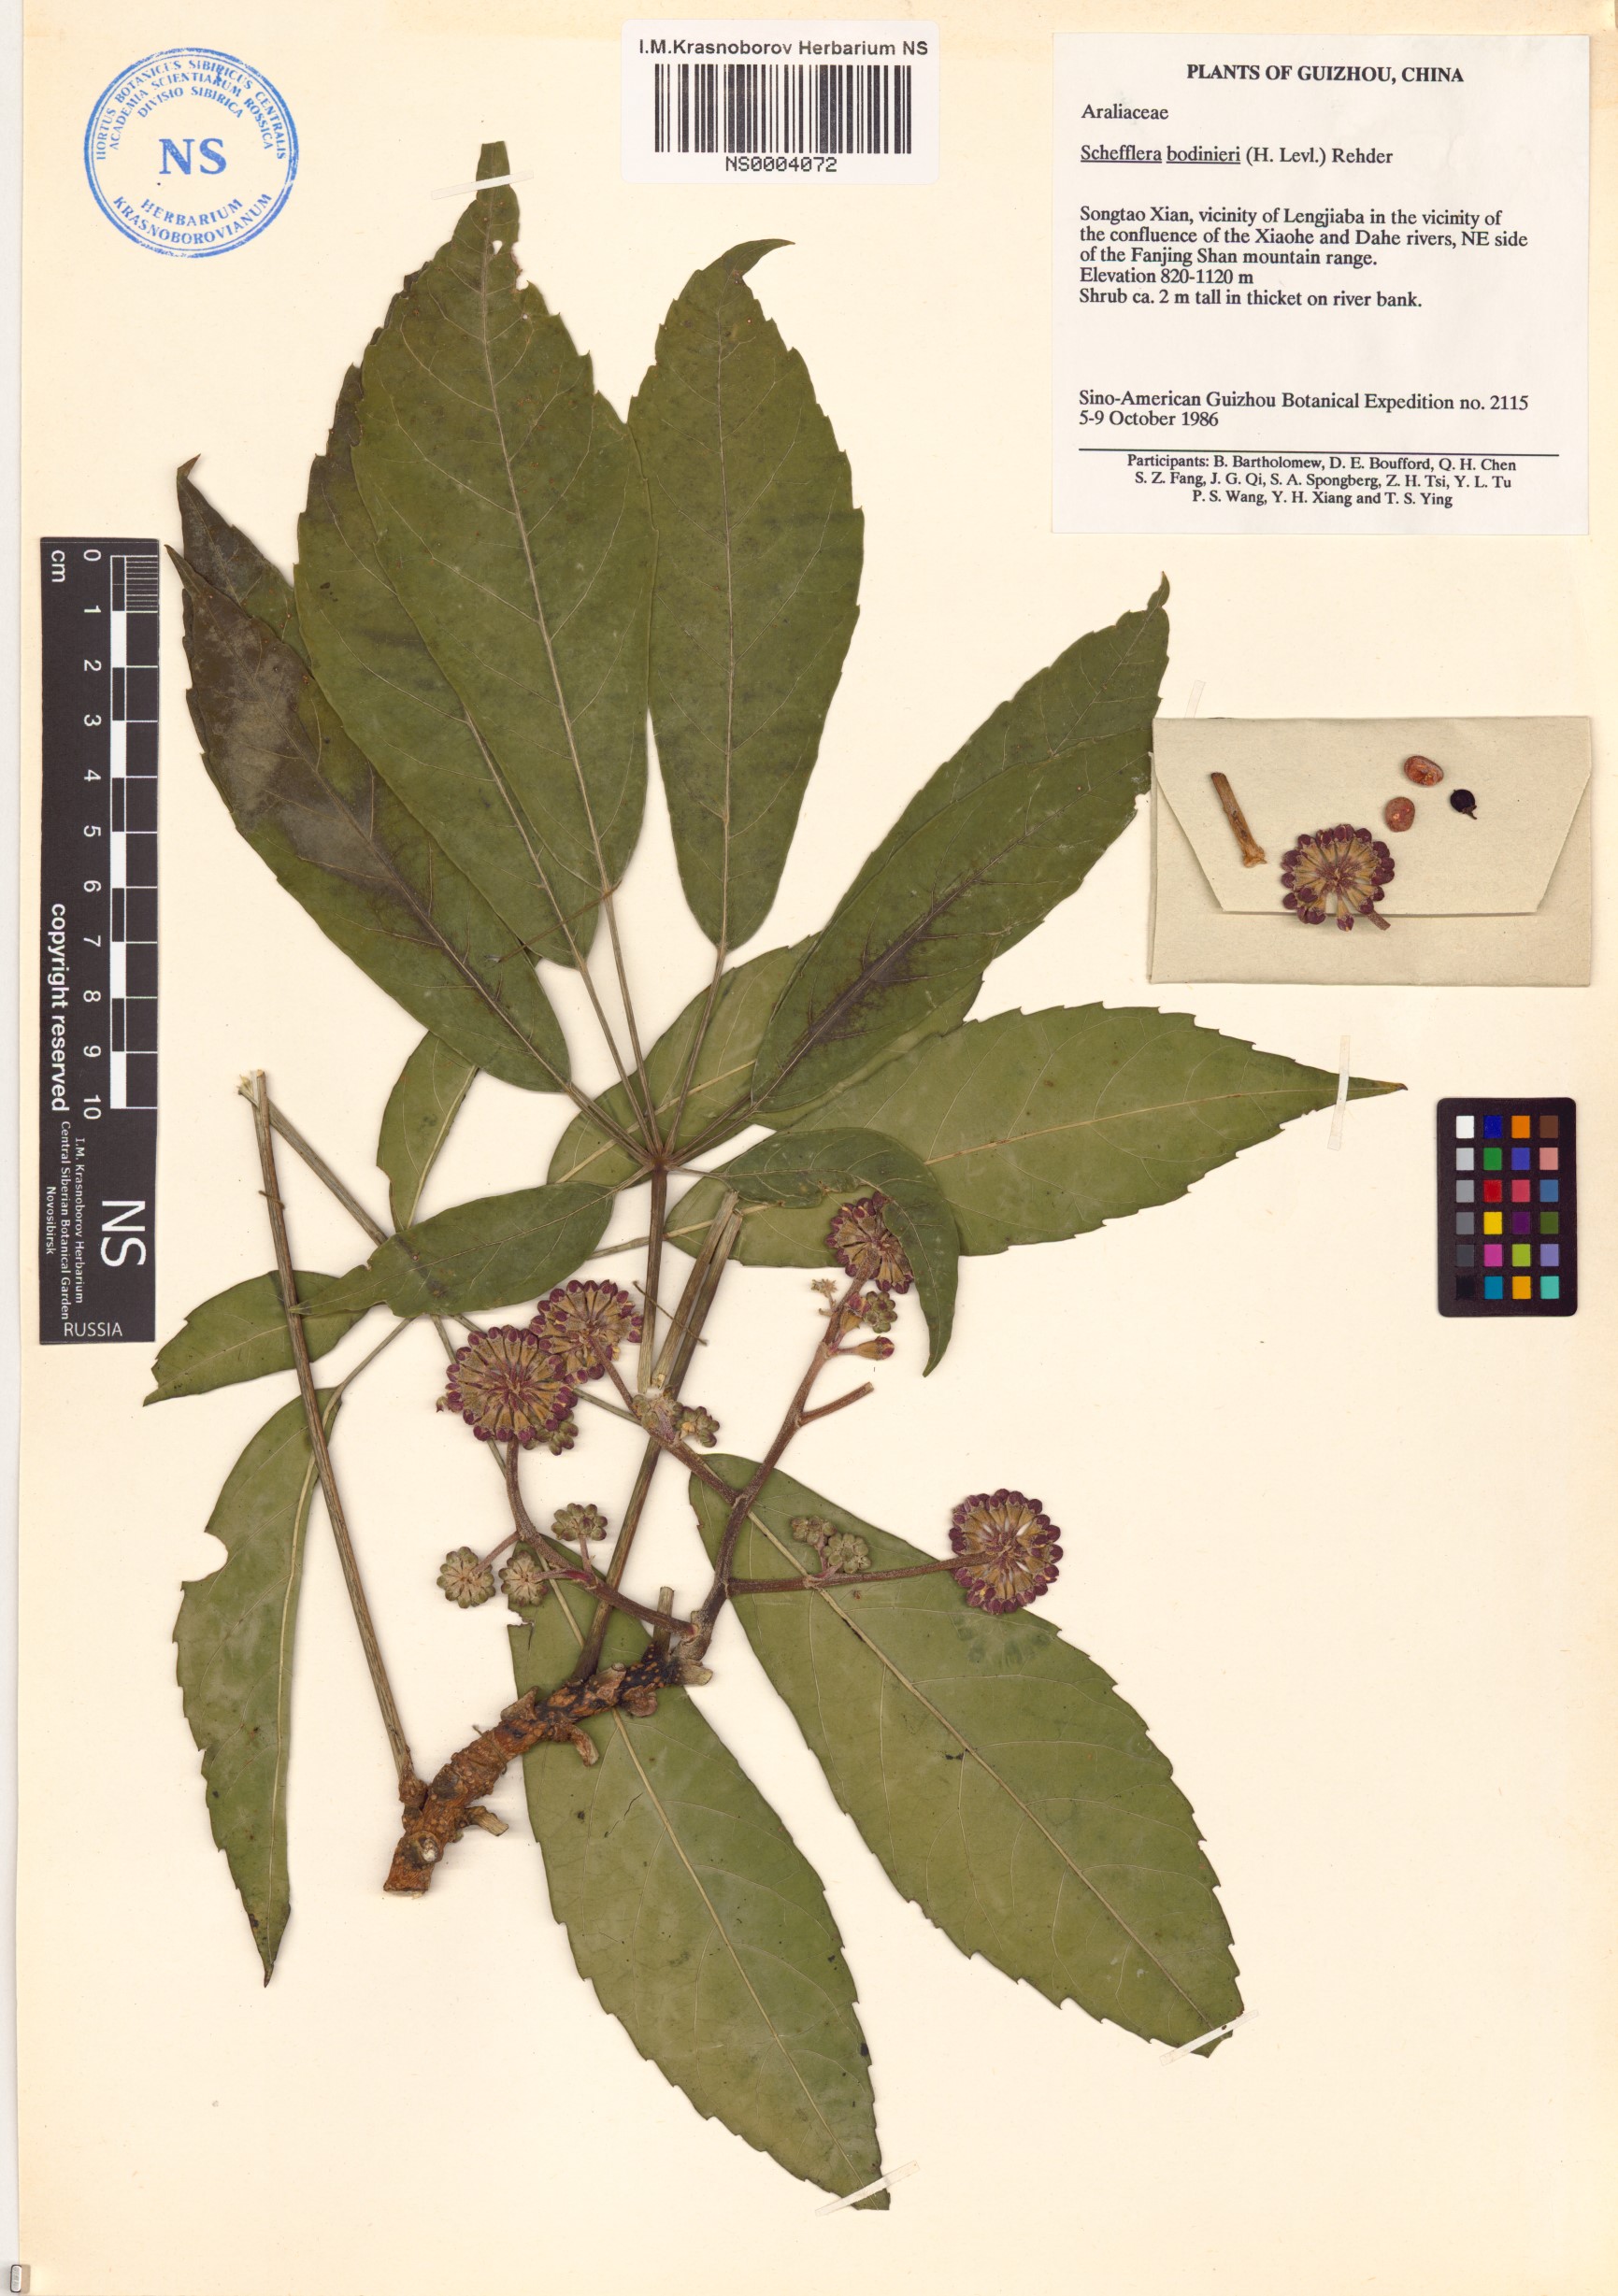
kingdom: Plantae
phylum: Tracheophyta
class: Magnoliopsida
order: Apiales
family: Araliaceae
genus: Heptapleurum
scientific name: Heptapleurum bodinieri
